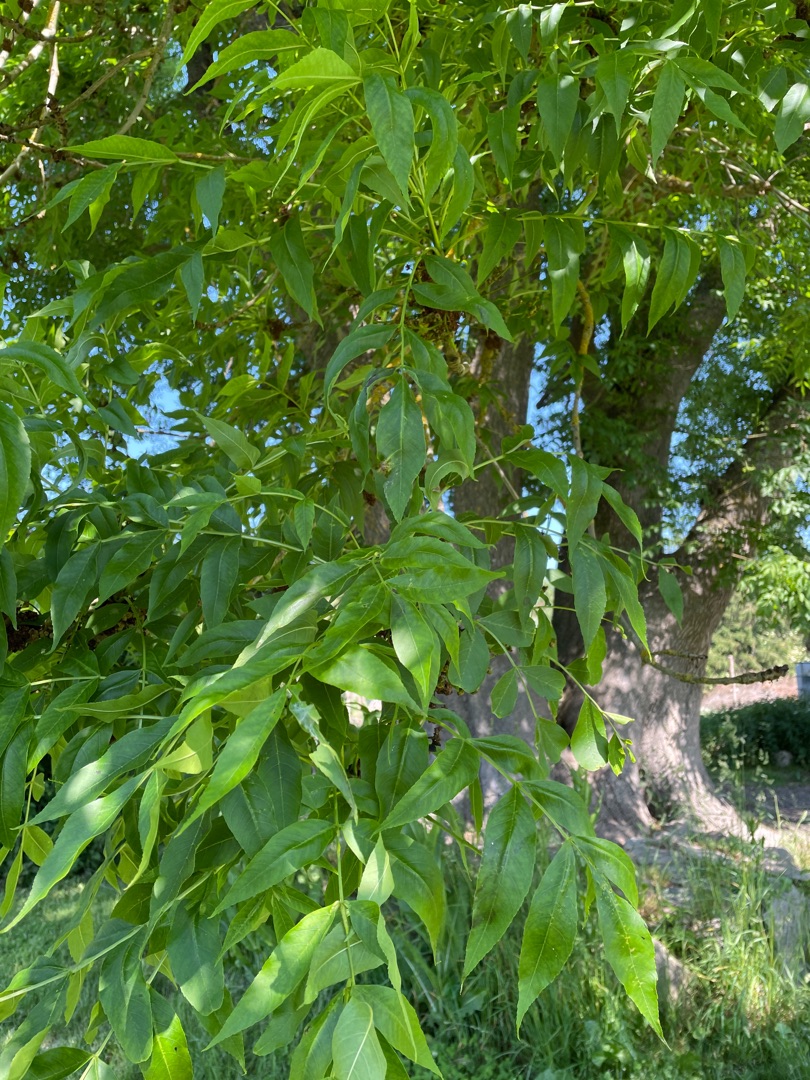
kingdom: Plantae
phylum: Tracheophyta
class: Magnoliopsida
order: Lamiales
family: Oleaceae
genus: Fraxinus
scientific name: Fraxinus excelsior
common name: Ask
